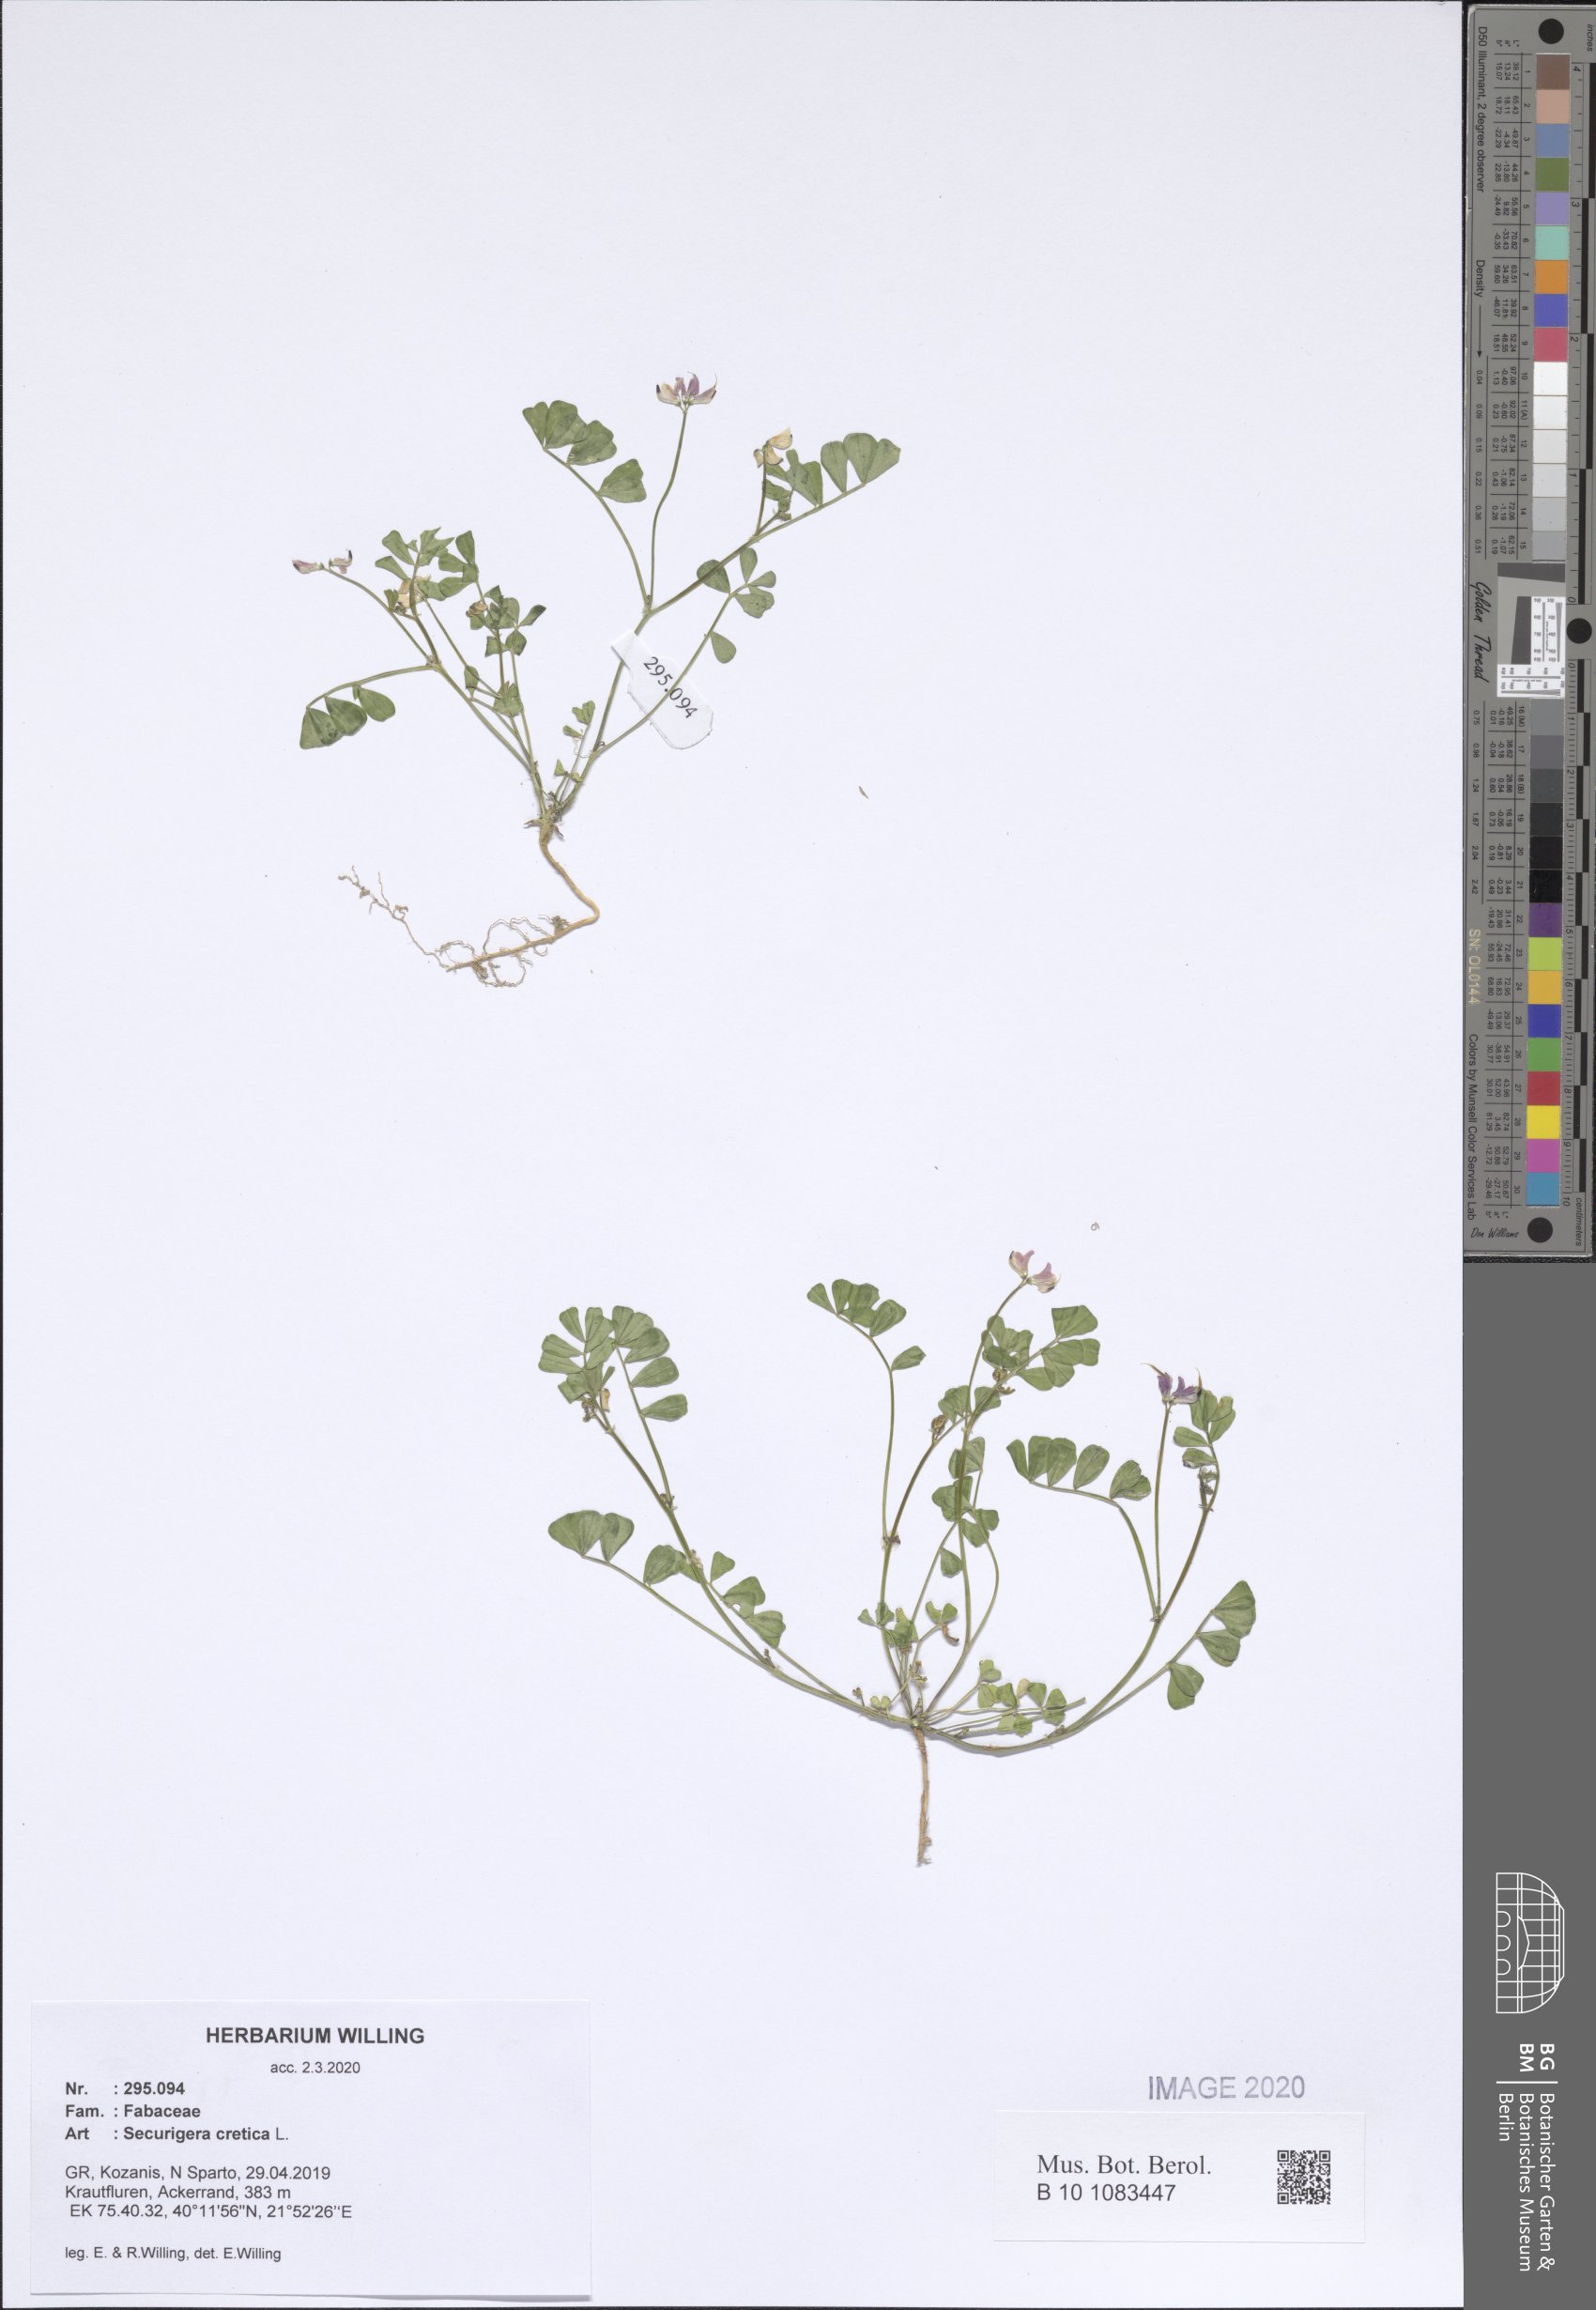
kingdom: Plantae
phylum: Tracheophyta
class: Magnoliopsida
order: Fabales
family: Fabaceae
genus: Coronilla
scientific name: Coronilla cretica
